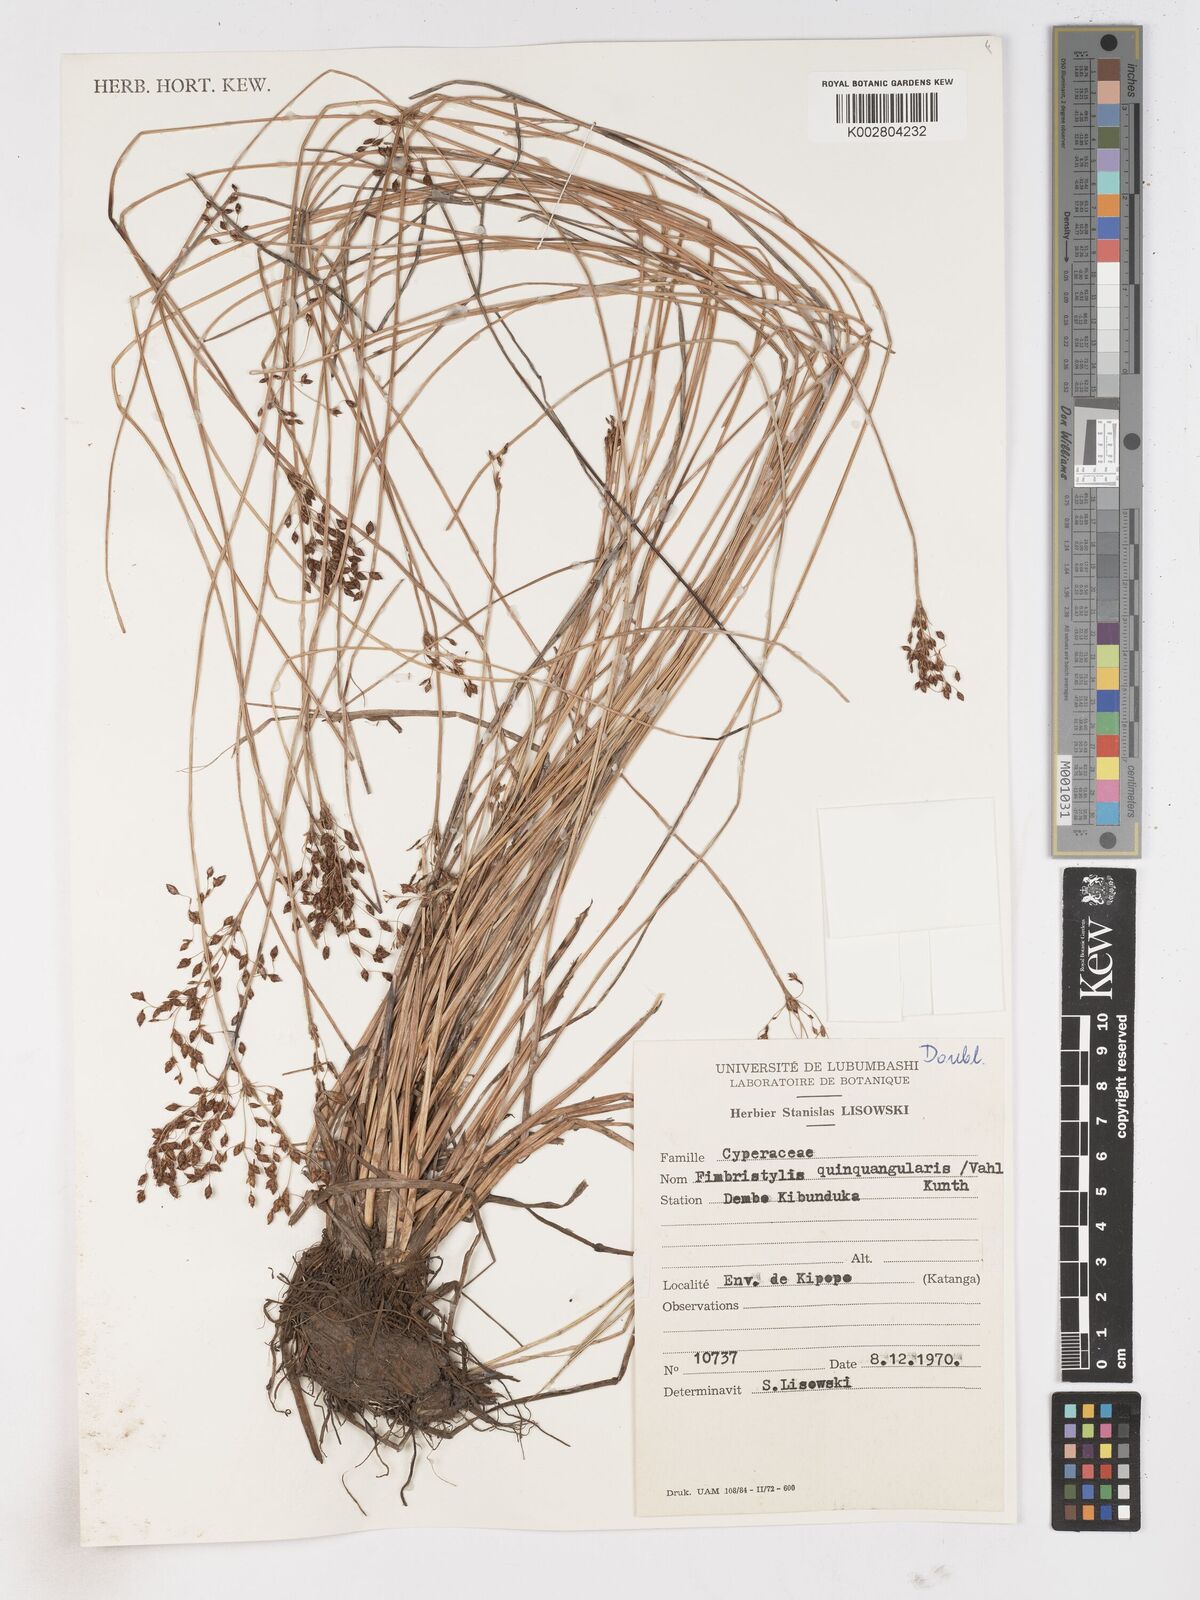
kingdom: Plantae
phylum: Tracheophyta
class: Liliopsida
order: Poales
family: Cyperaceae
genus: Fimbristylis
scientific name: Fimbristylis quinquangularis
